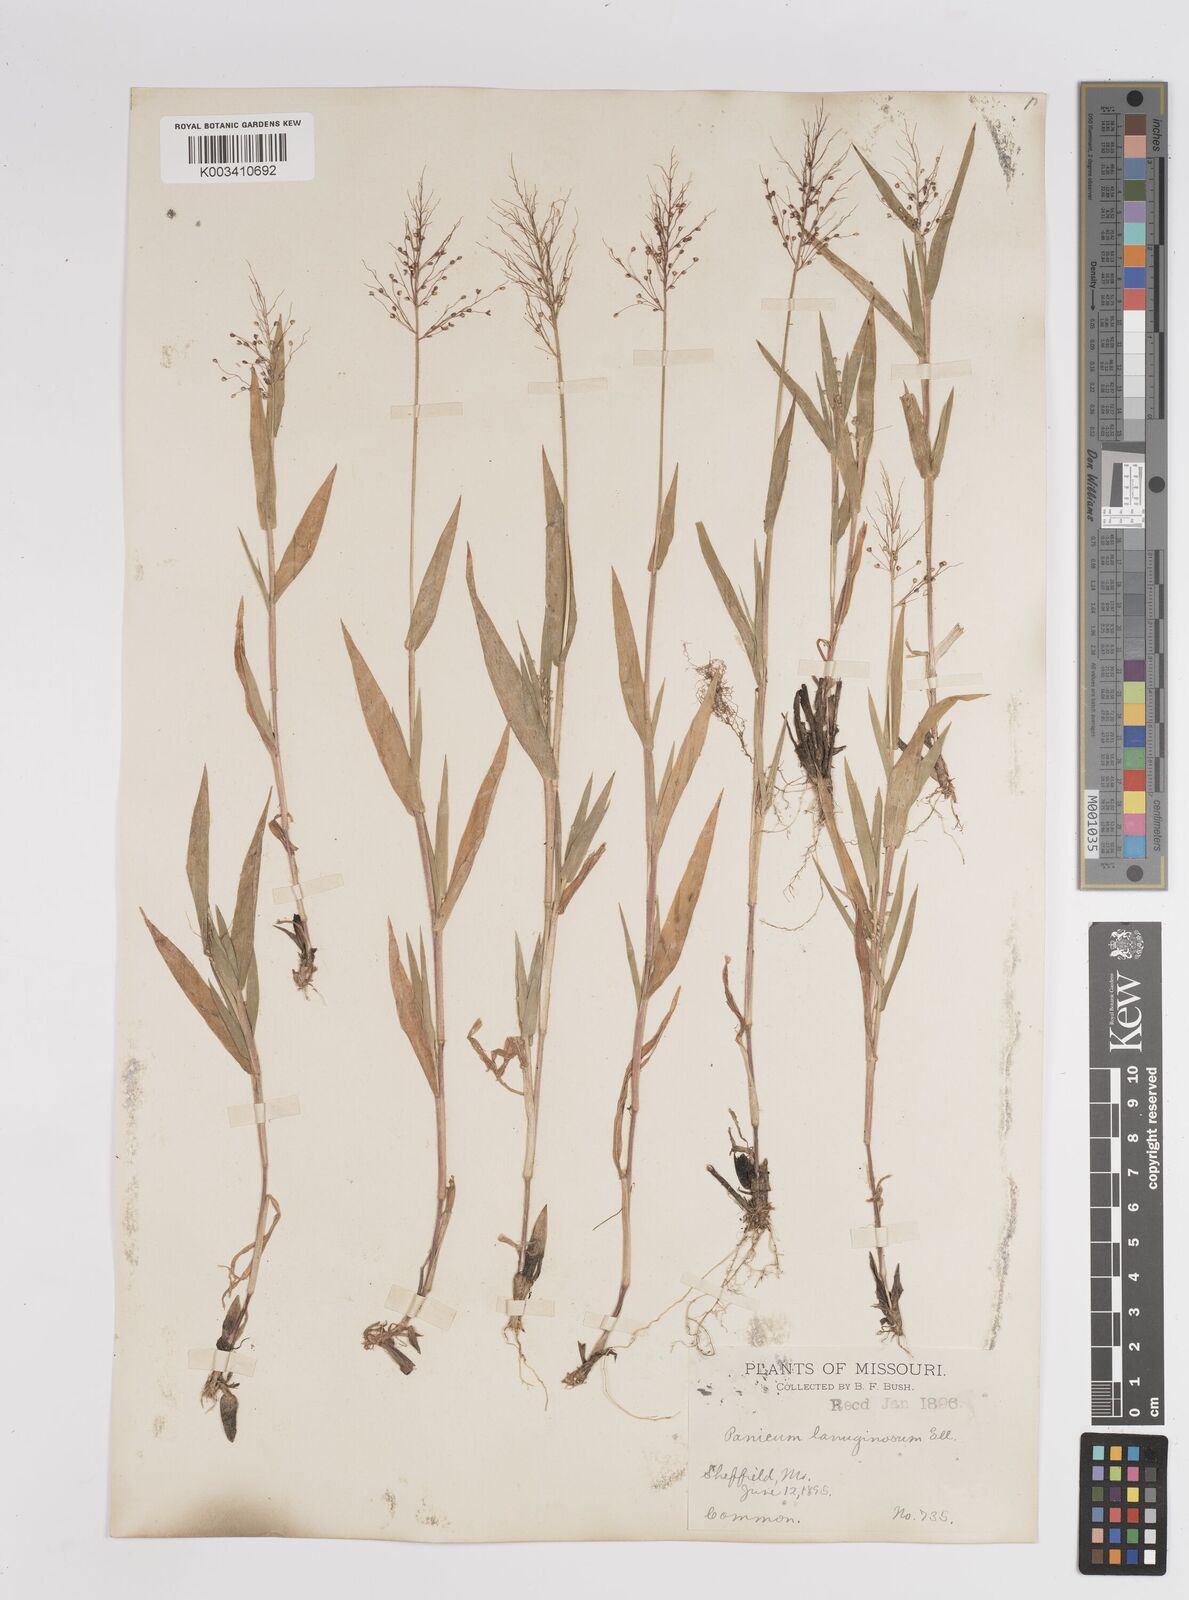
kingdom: Plantae
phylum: Tracheophyta
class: Liliopsida
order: Poales
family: Poaceae
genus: Dichanthelium
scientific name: Dichanthelium lanuginosum
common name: Woolly panicgrass
